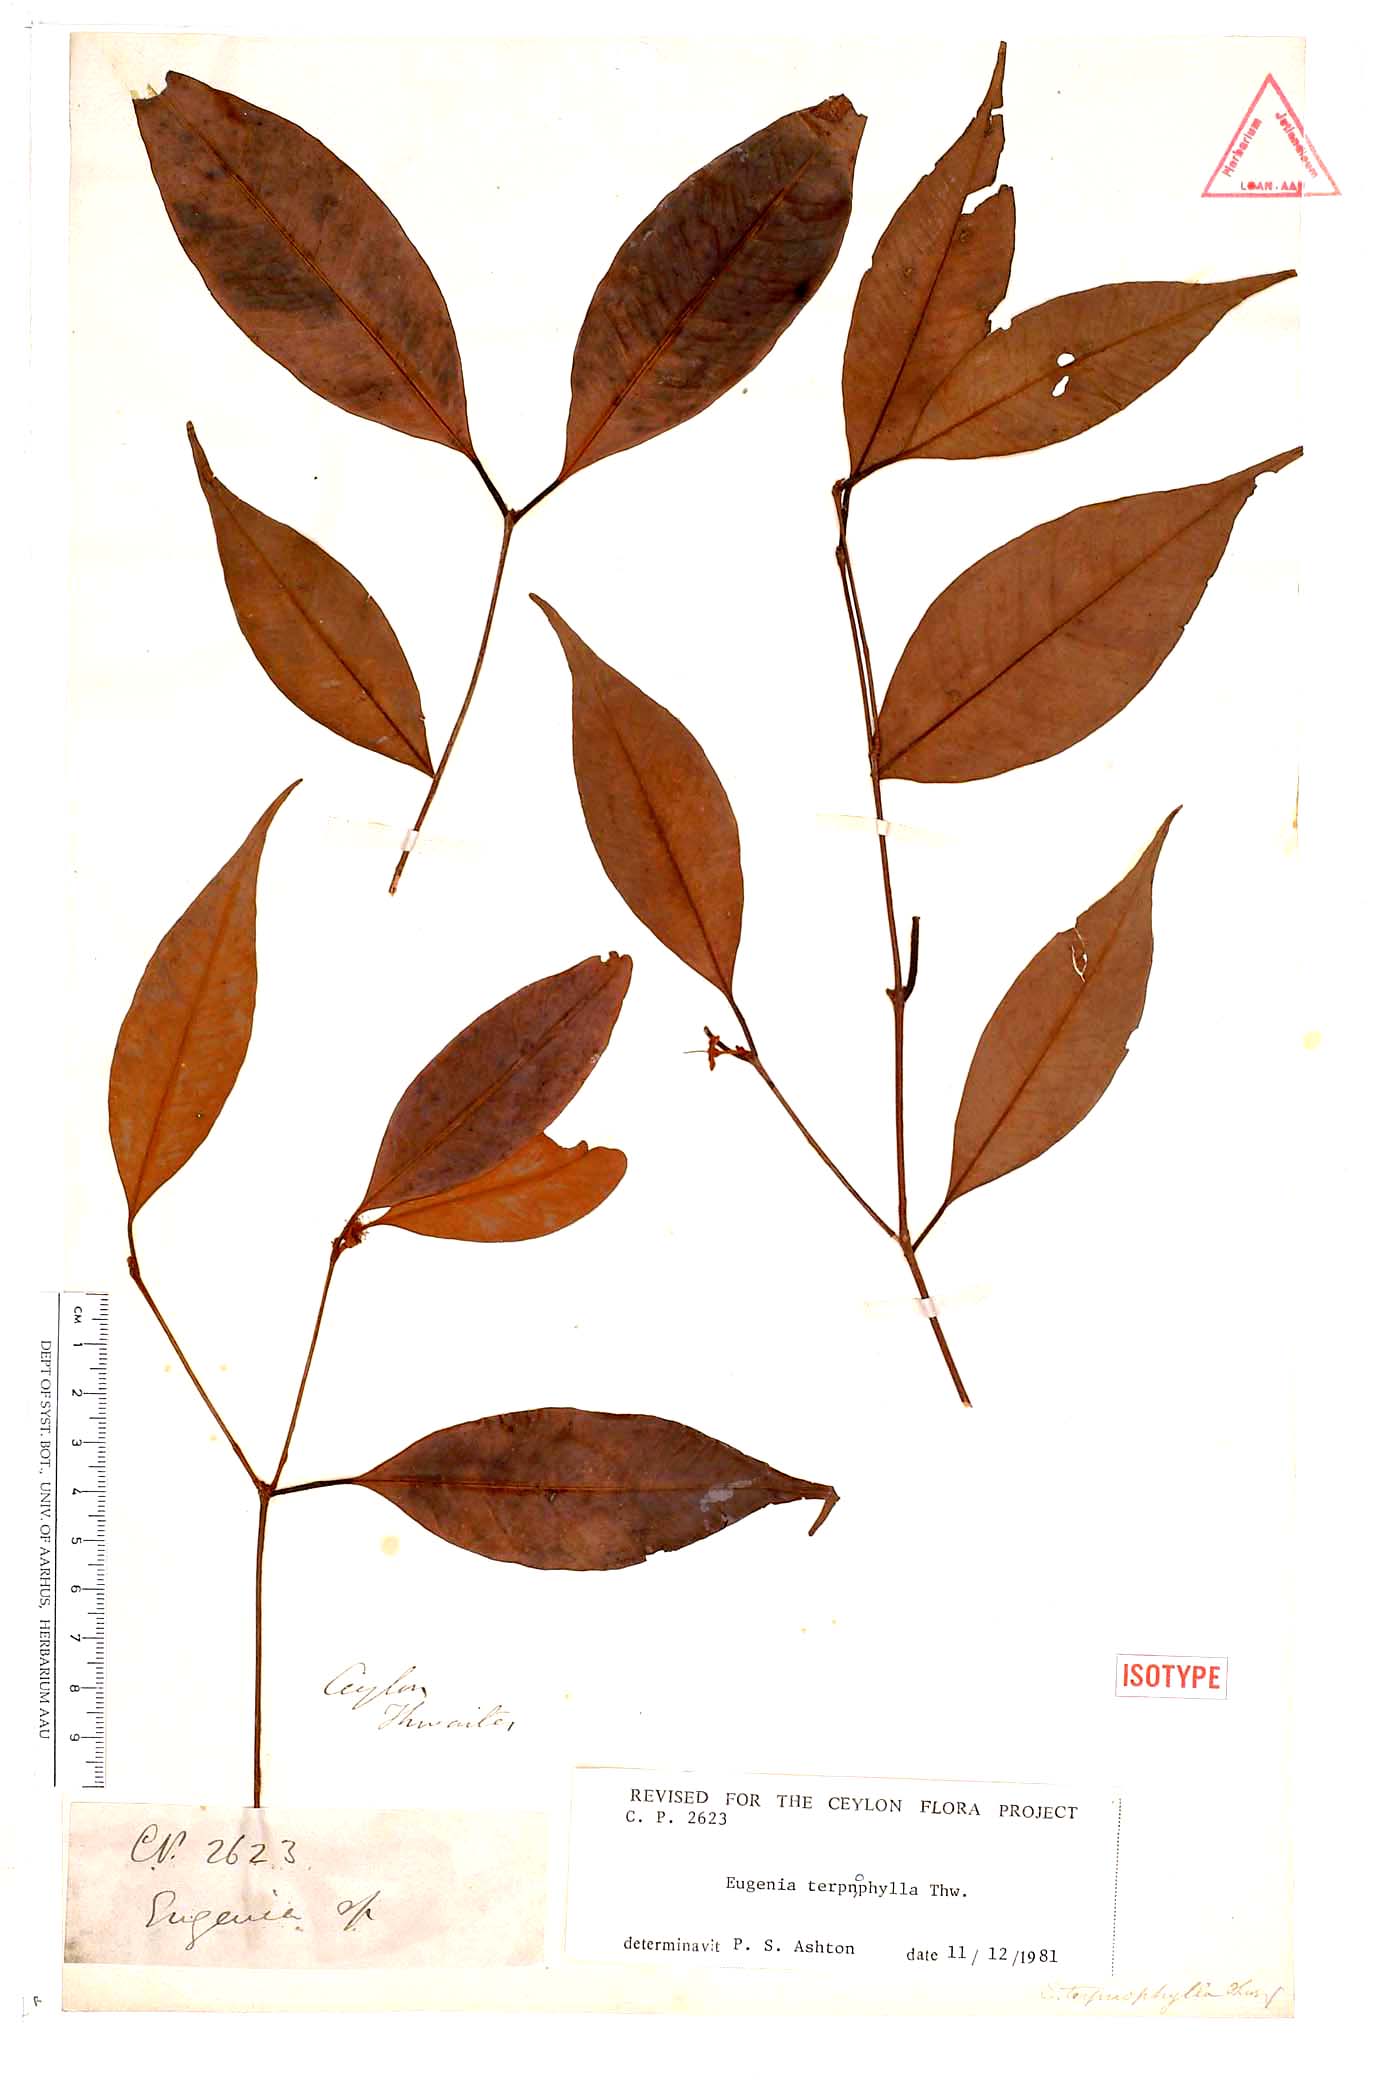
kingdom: Plantae
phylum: Tracheophyta
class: Magnoliopsida
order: Myrtales
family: Myrtaceae
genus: Eugenia
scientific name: Eugenia terpnophylla
